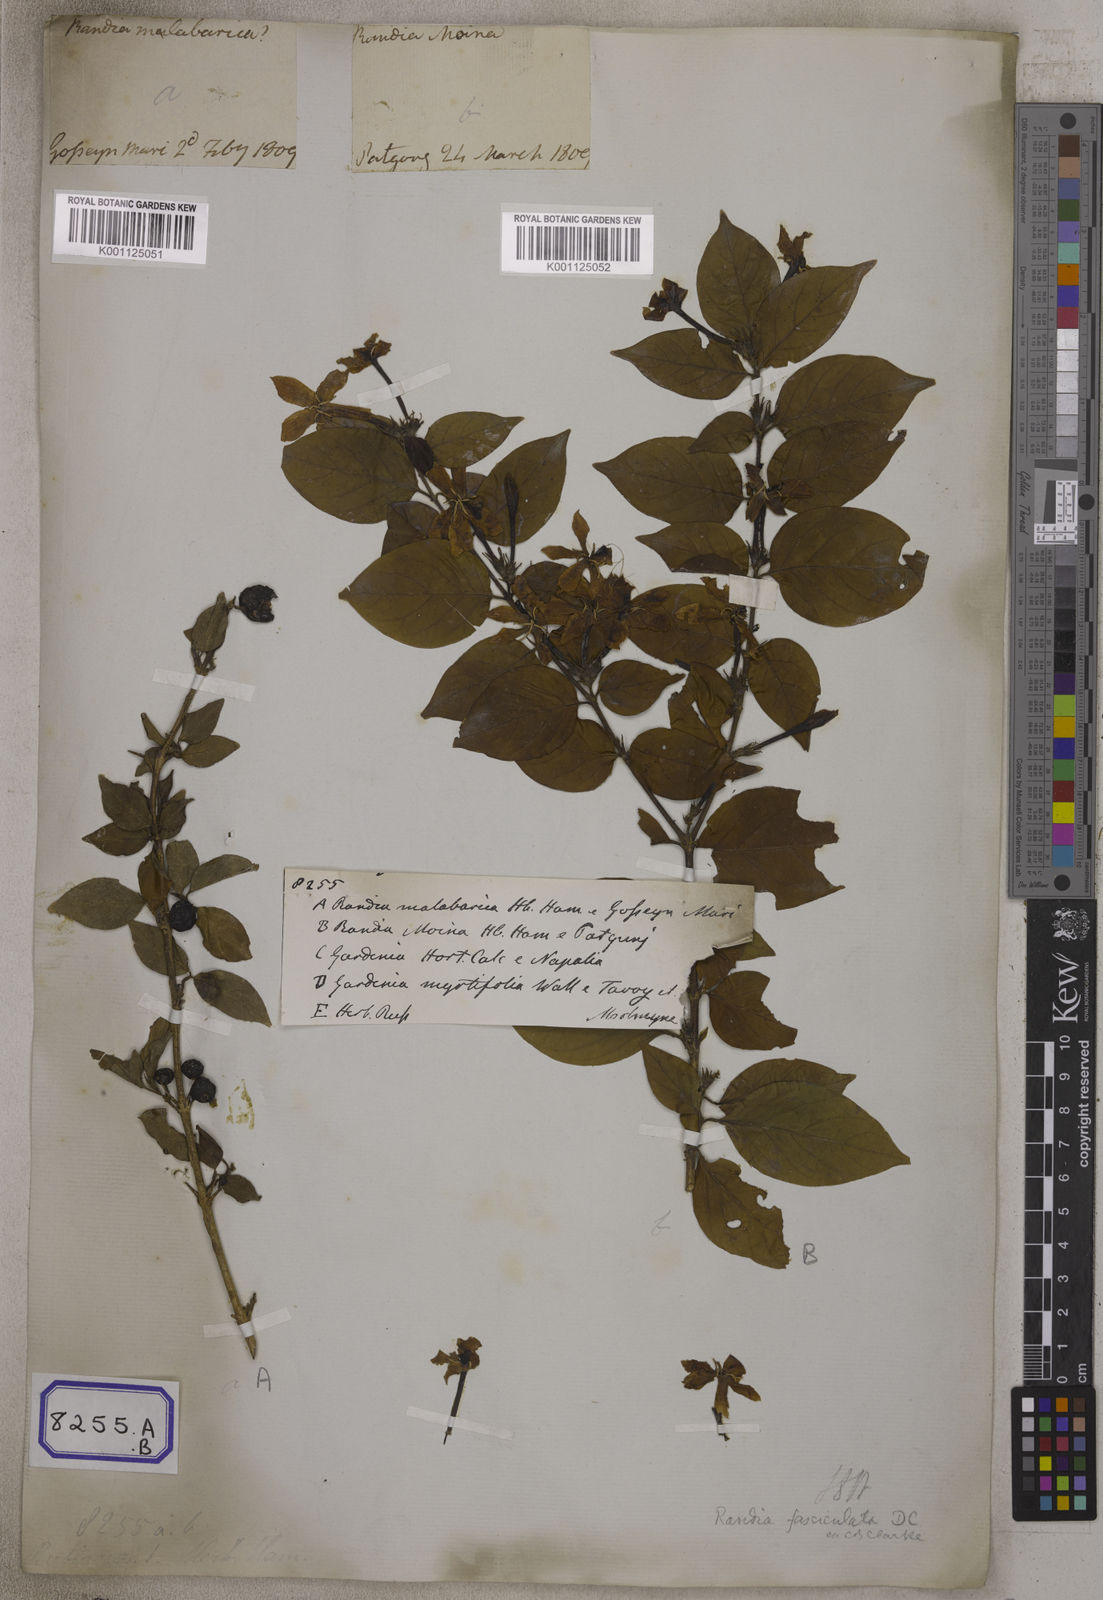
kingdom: Plantae
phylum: Tracheophyta
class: Magnoliopsida
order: Gentianales
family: Rubiaceae
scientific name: Rubiaceae
